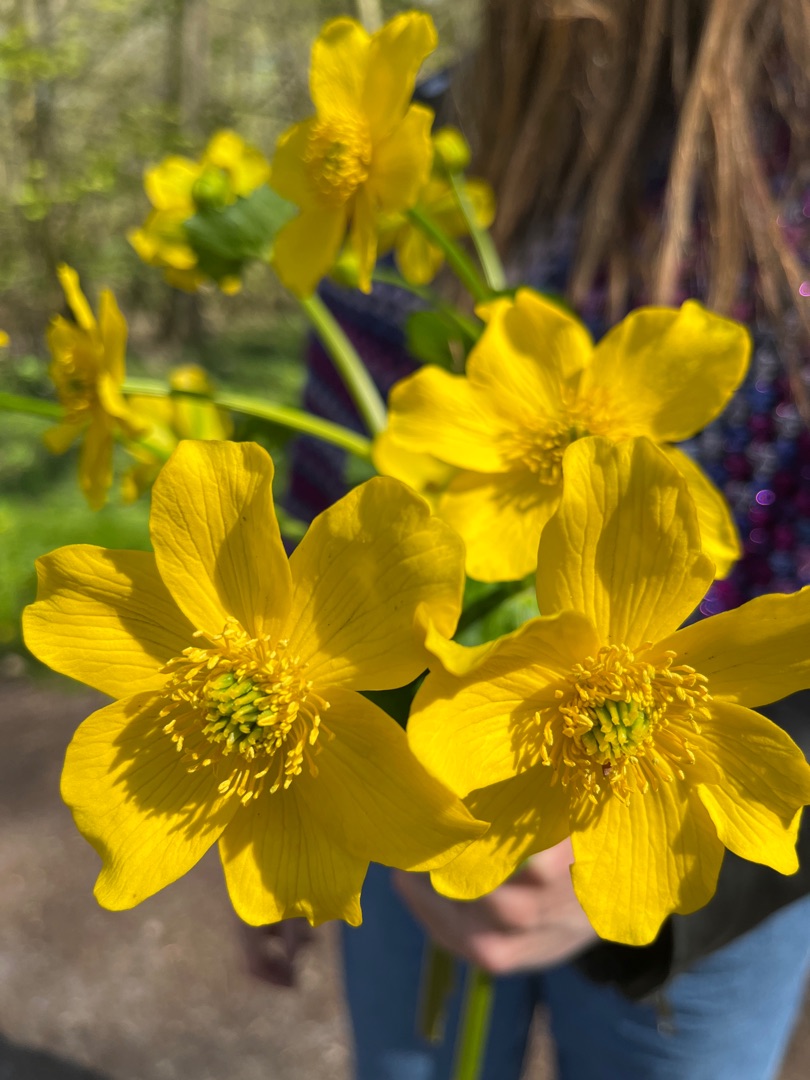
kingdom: Plantae
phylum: Tracheophyta
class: Magnoliopsida
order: Ranunculales
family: Ranunculaceae
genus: Caltha
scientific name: Caltha palustris
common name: Eng-kabbeleje
